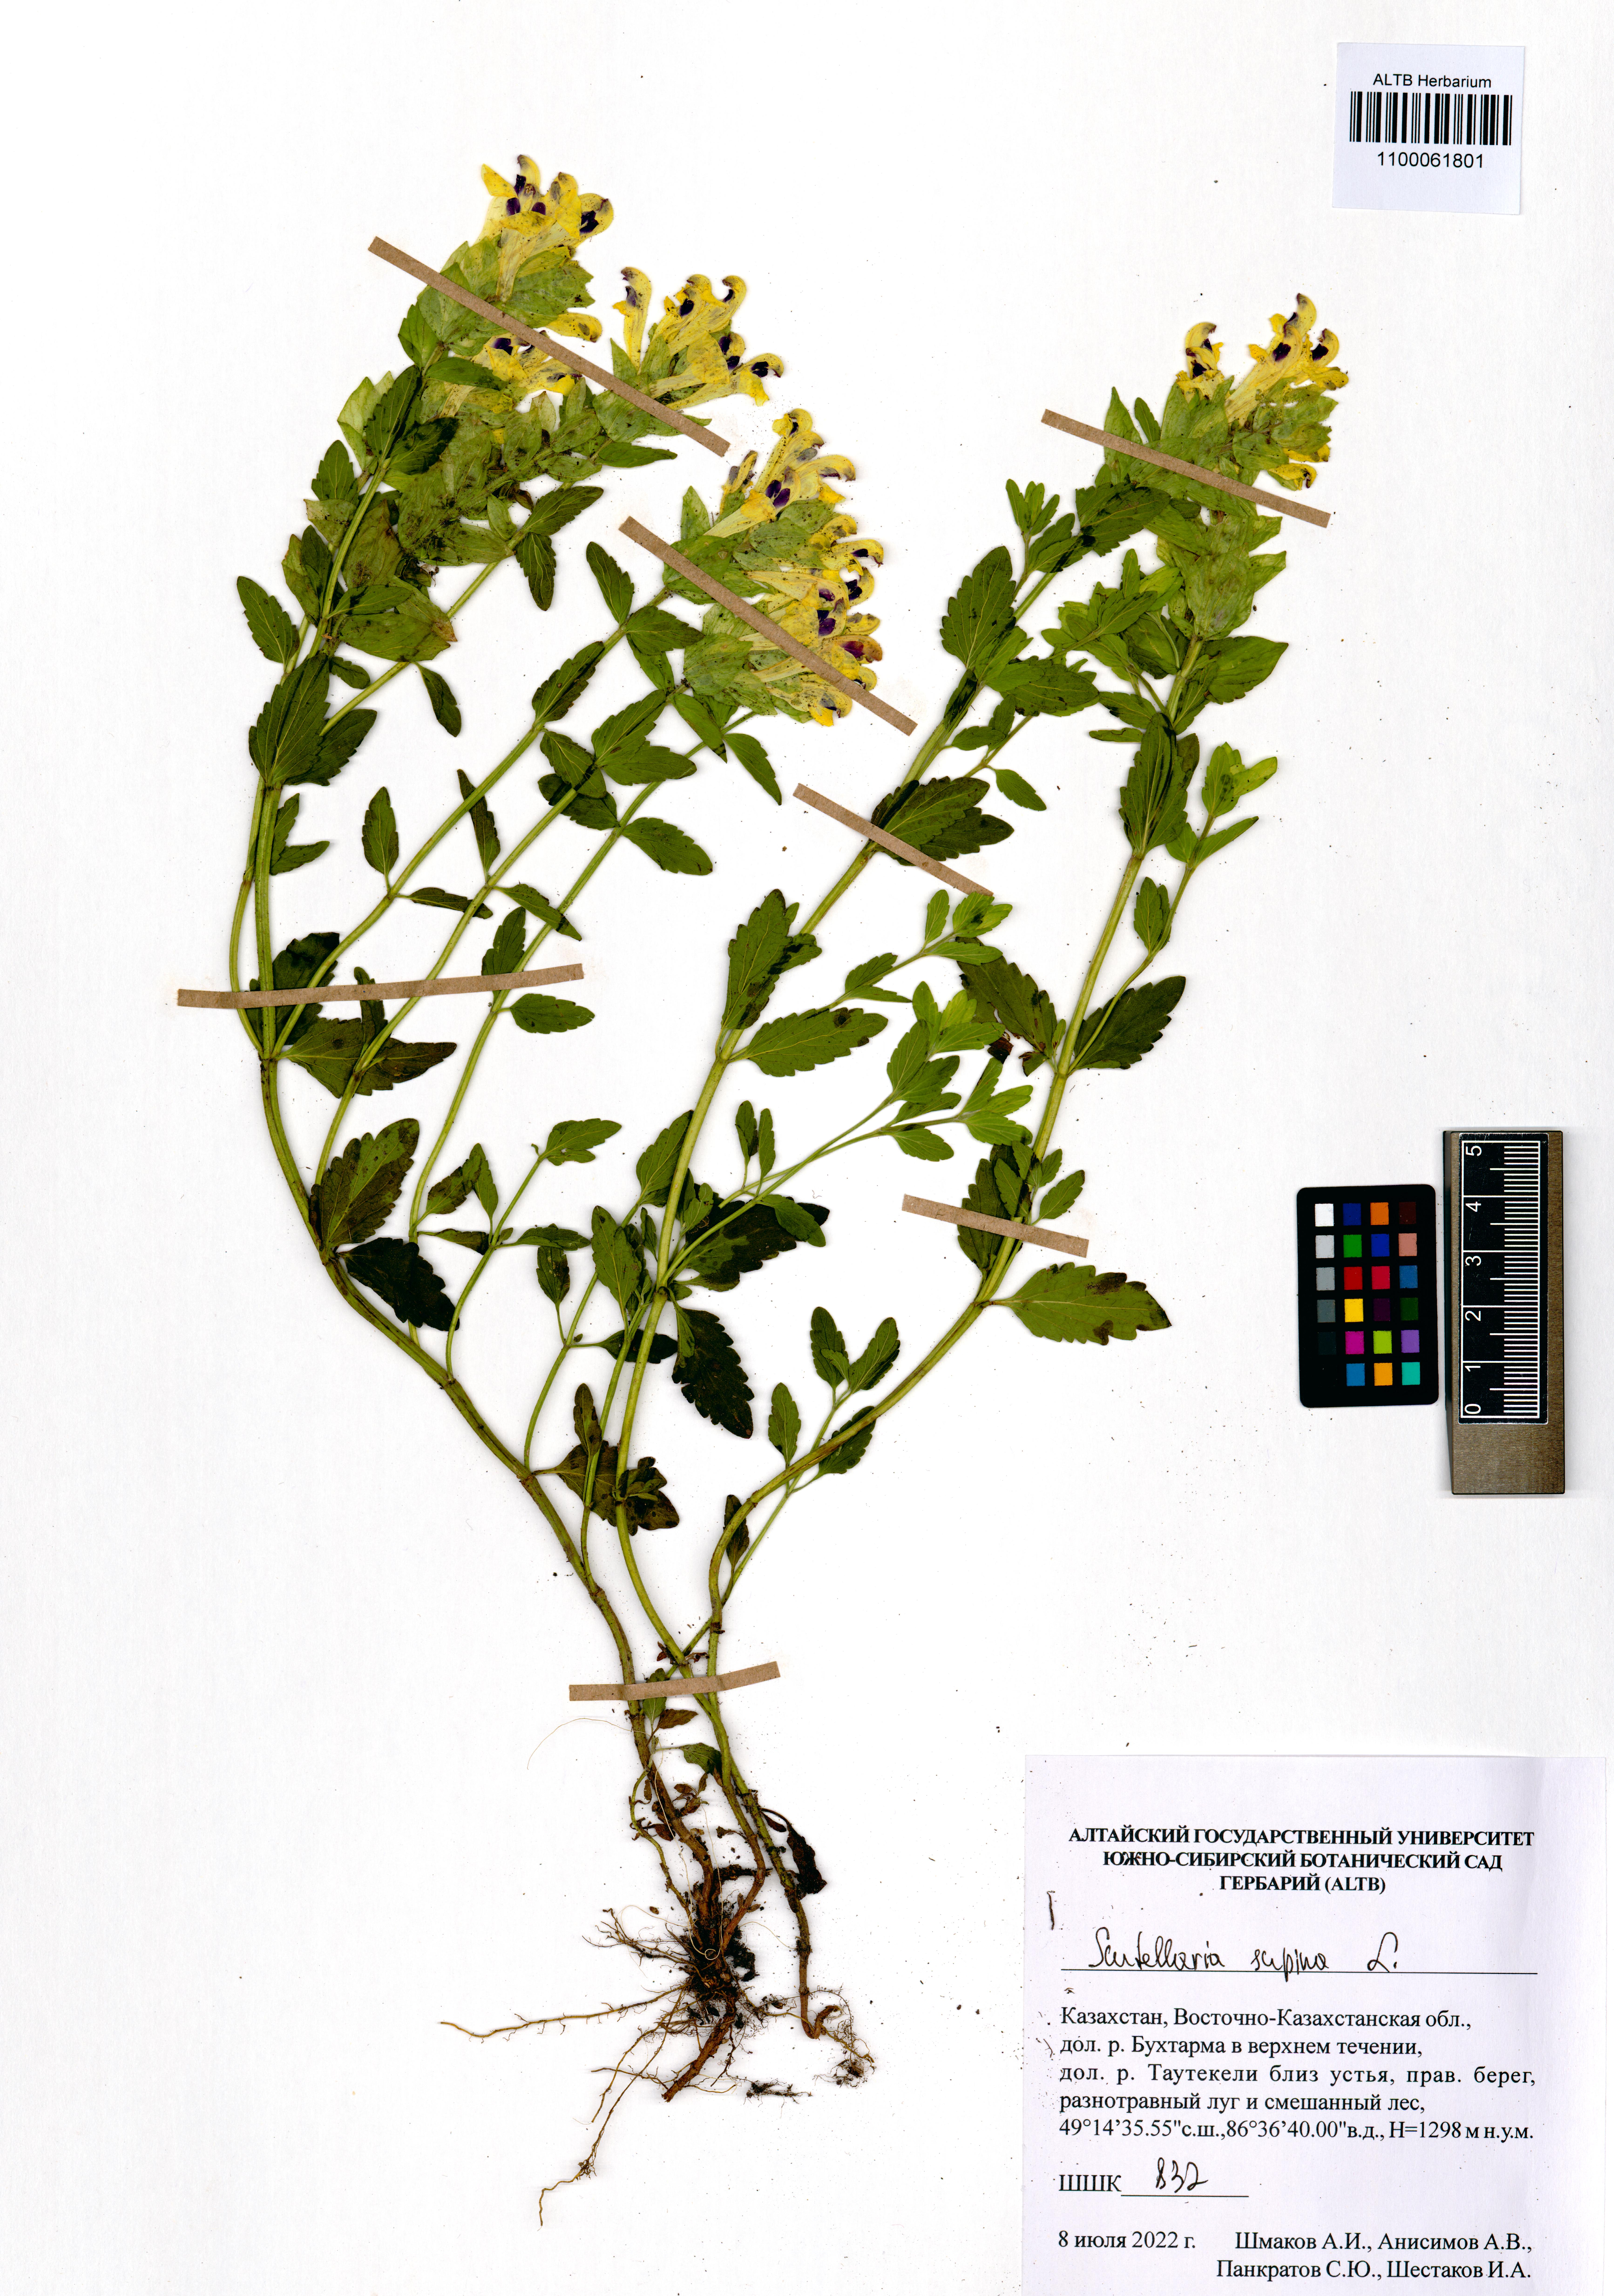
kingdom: Plantae
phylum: Tracheophyta
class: Magnoliopsida
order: Lamiales
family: Lamiaceae
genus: Scutellaria
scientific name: Scutellaria supina
